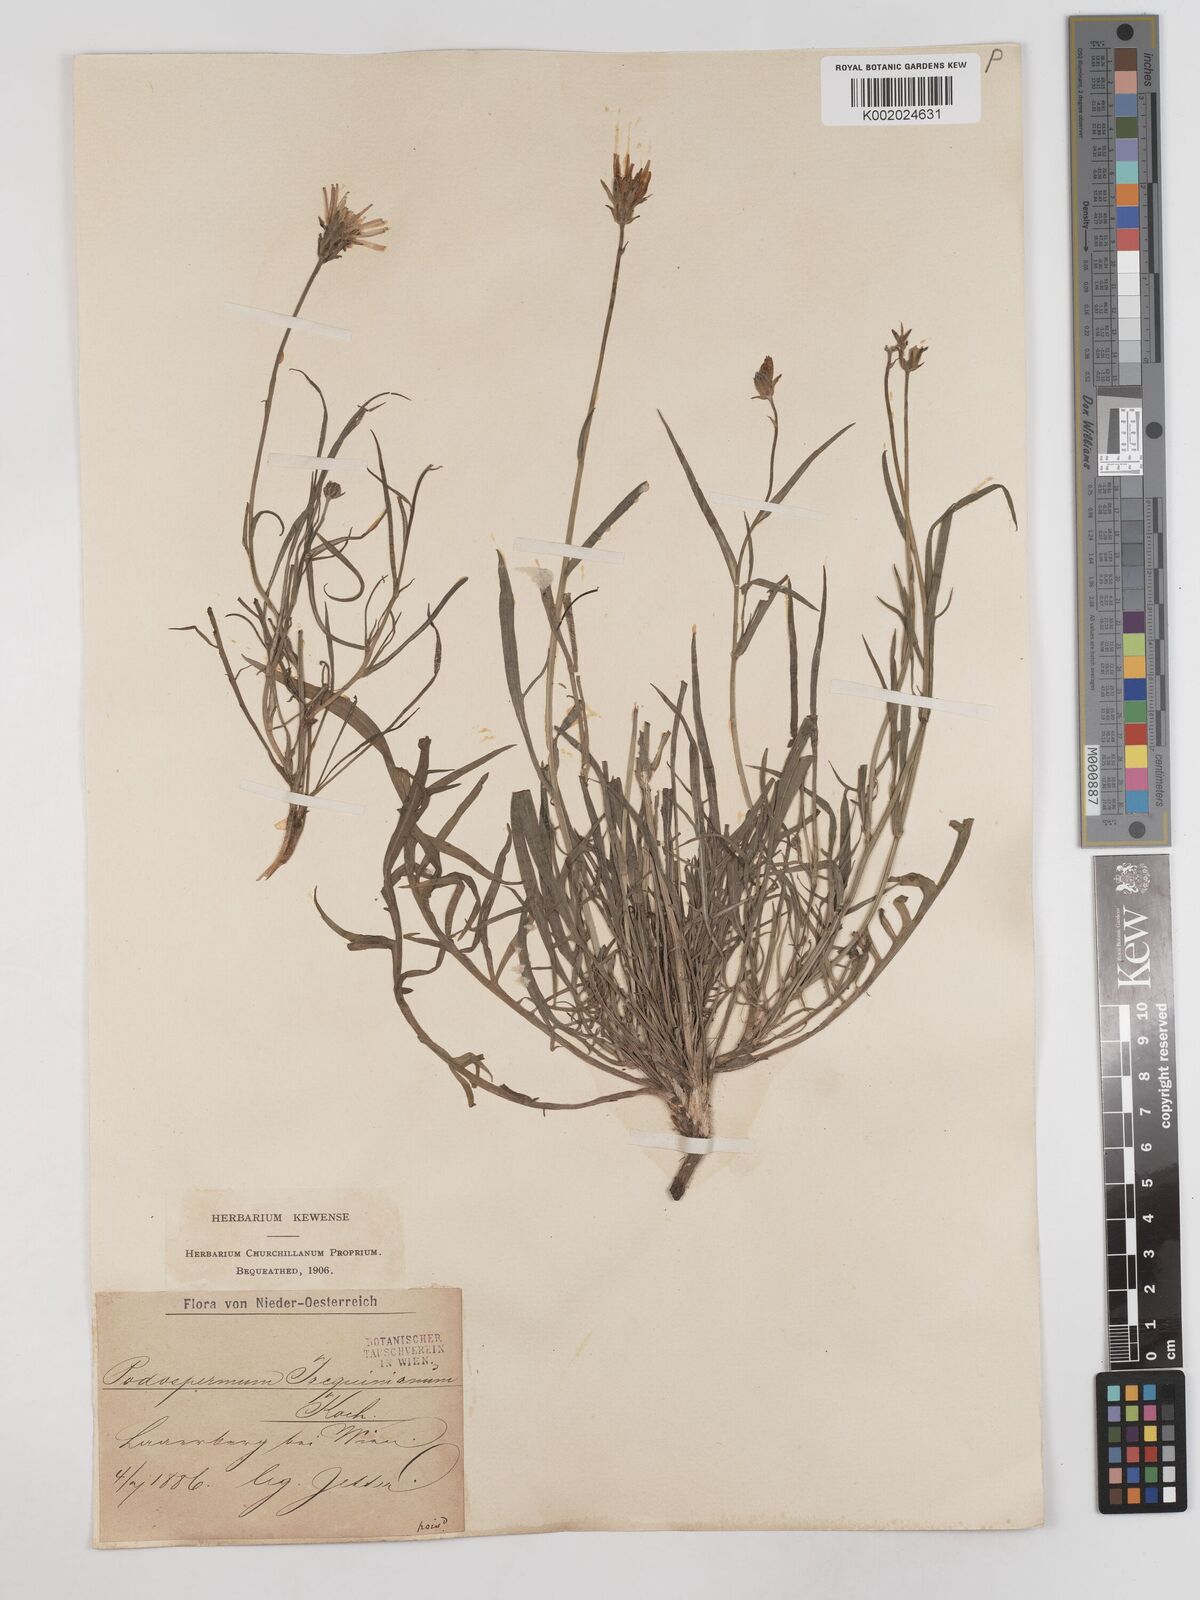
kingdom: Plantae
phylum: Tracheophyta
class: Magnoliopsida
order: Asterales
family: Asteraceae
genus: Scorzonera
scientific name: Scorzonera cana
